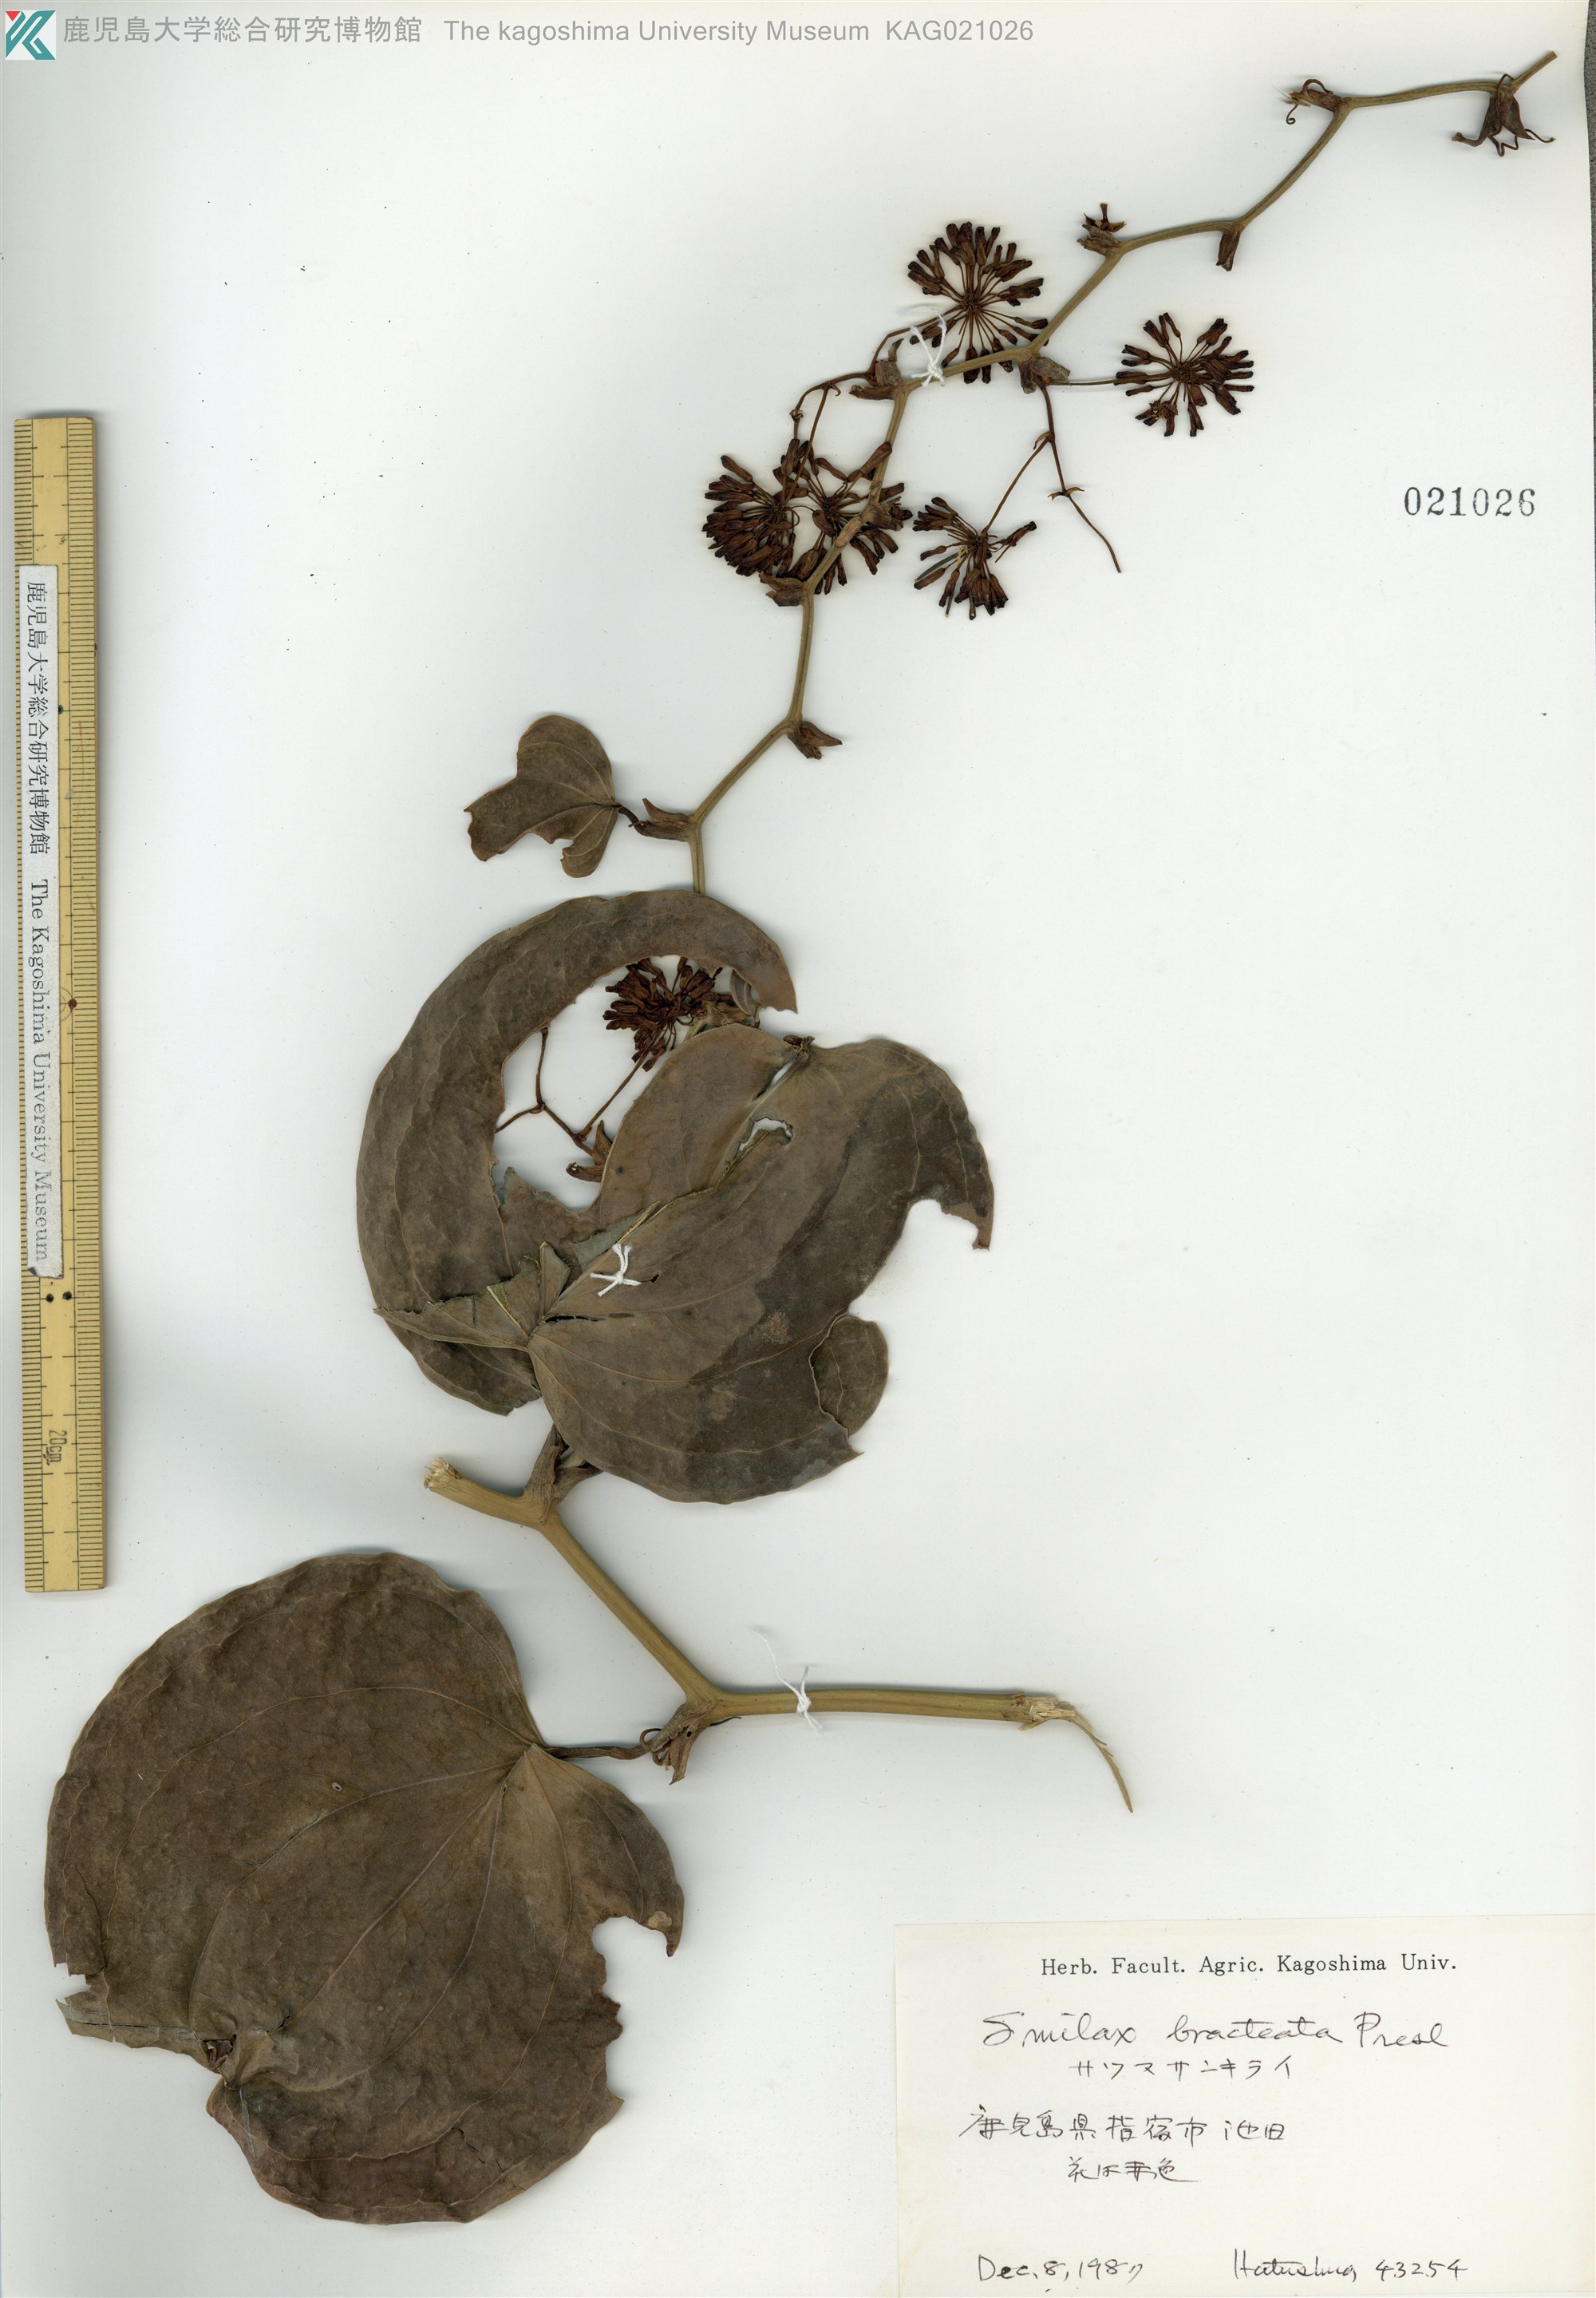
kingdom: Plantae
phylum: Tracheophyta
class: Liliopsida
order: Liliales
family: Smilacaceae
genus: Smilax
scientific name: Smilax bracteata
